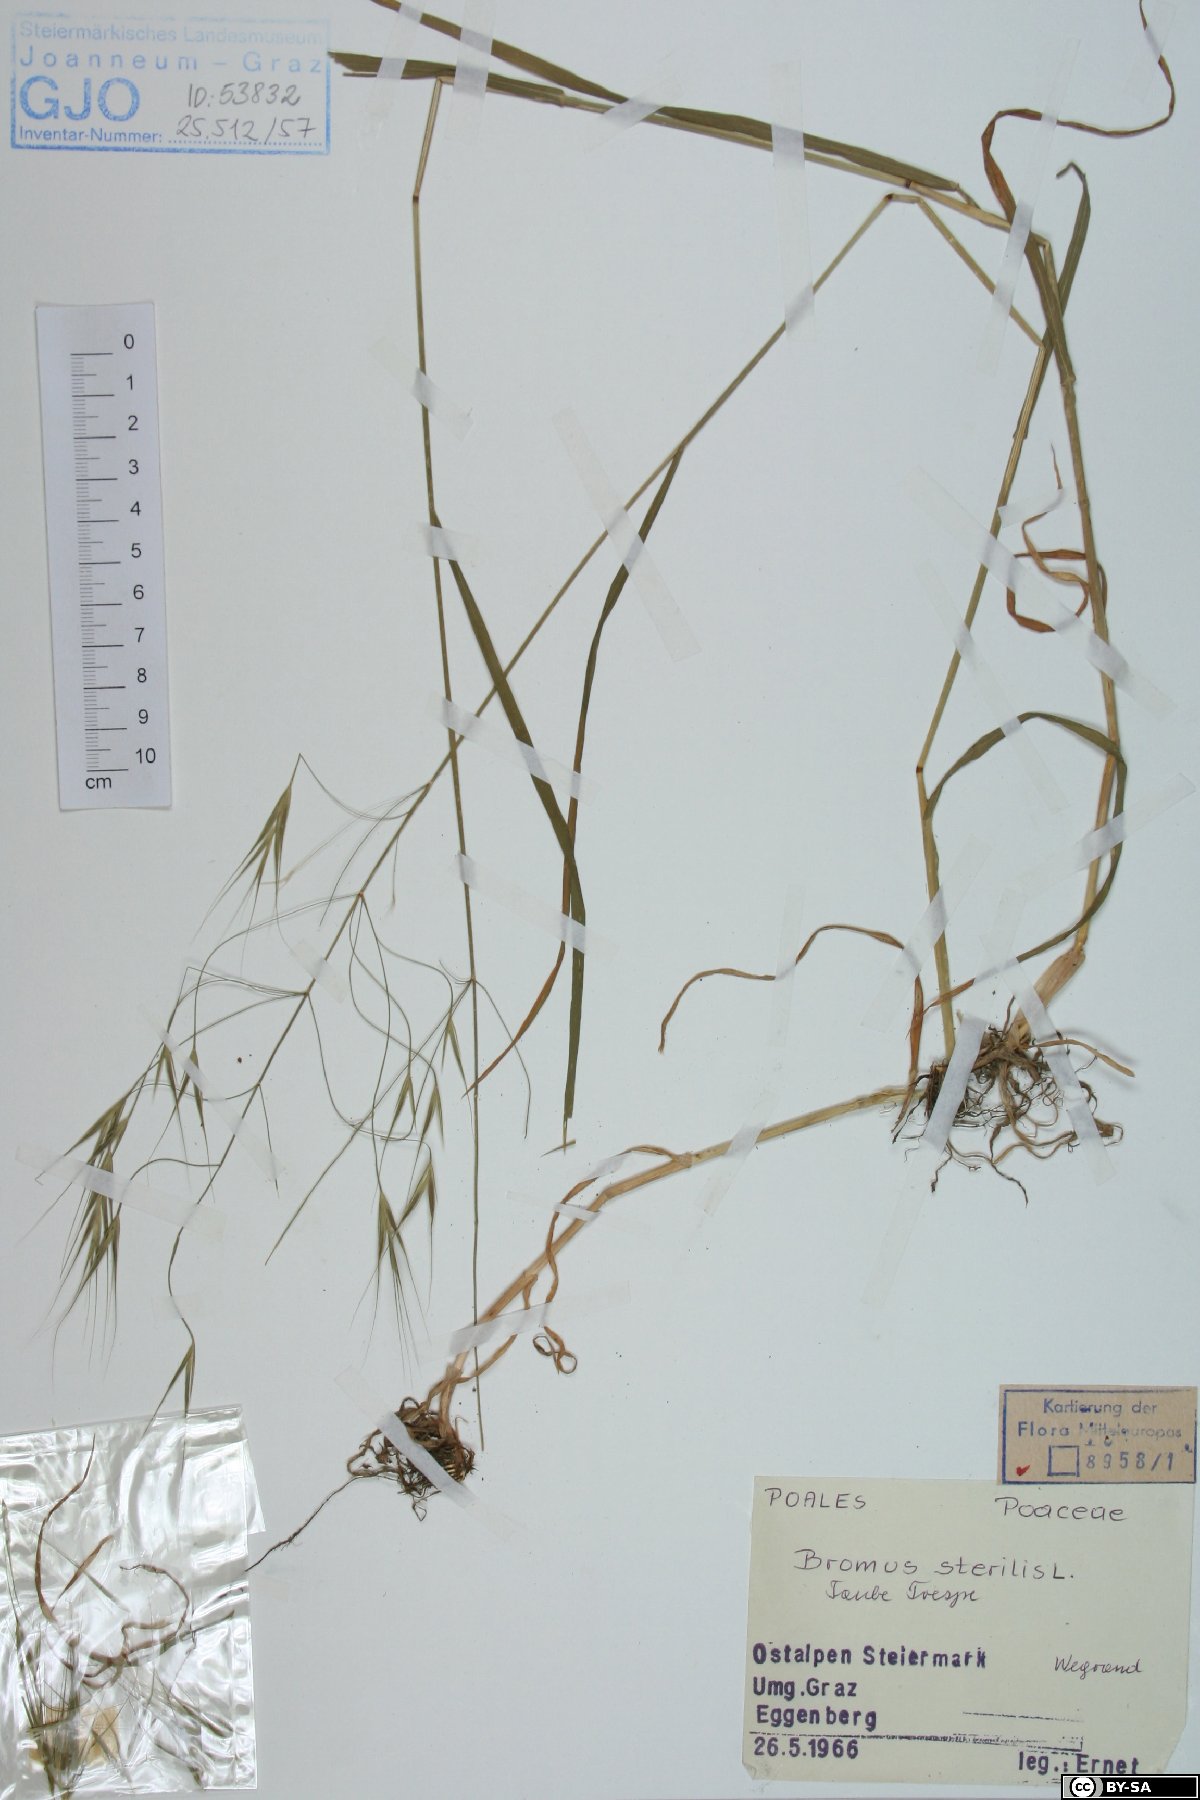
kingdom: Plantae
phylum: Tracheophyta
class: Liliopsida
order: Poales
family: Poaceae
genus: Bromus
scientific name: Bromus sterilis
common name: Poverty brome
